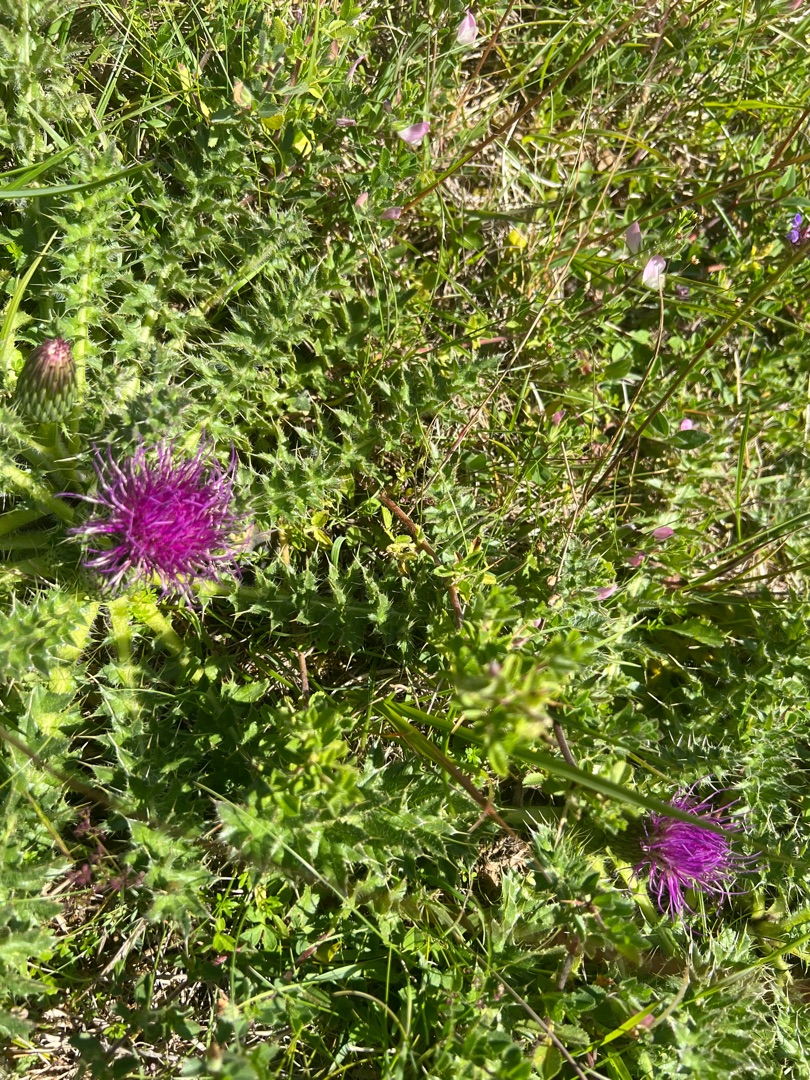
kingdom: Plantae
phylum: Tracheophyta
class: Magnoliopsida
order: Asterales
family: Asteraceae
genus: Cirsium
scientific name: Cirsium acaule
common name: Lav tidsel
